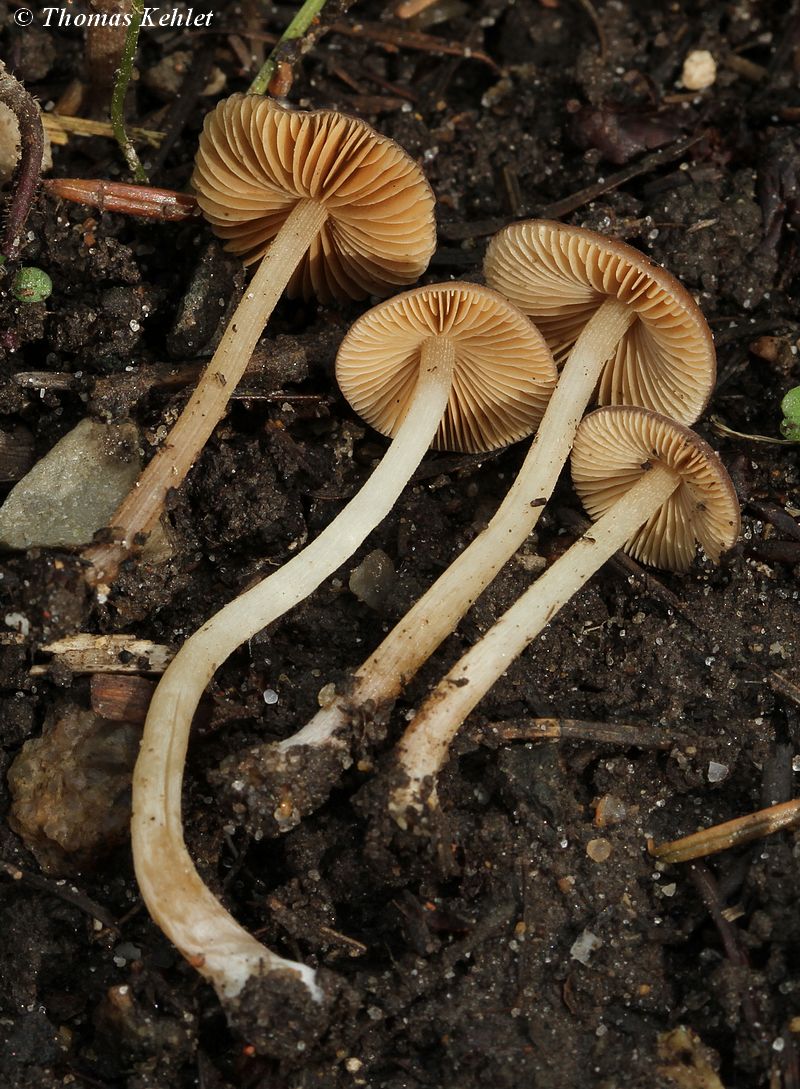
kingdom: Fungi
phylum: Basidiomycota
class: Agaricomycetes
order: Agaricales
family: Bolbitiaceae
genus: Conocybe
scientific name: Conocybe pilosella
